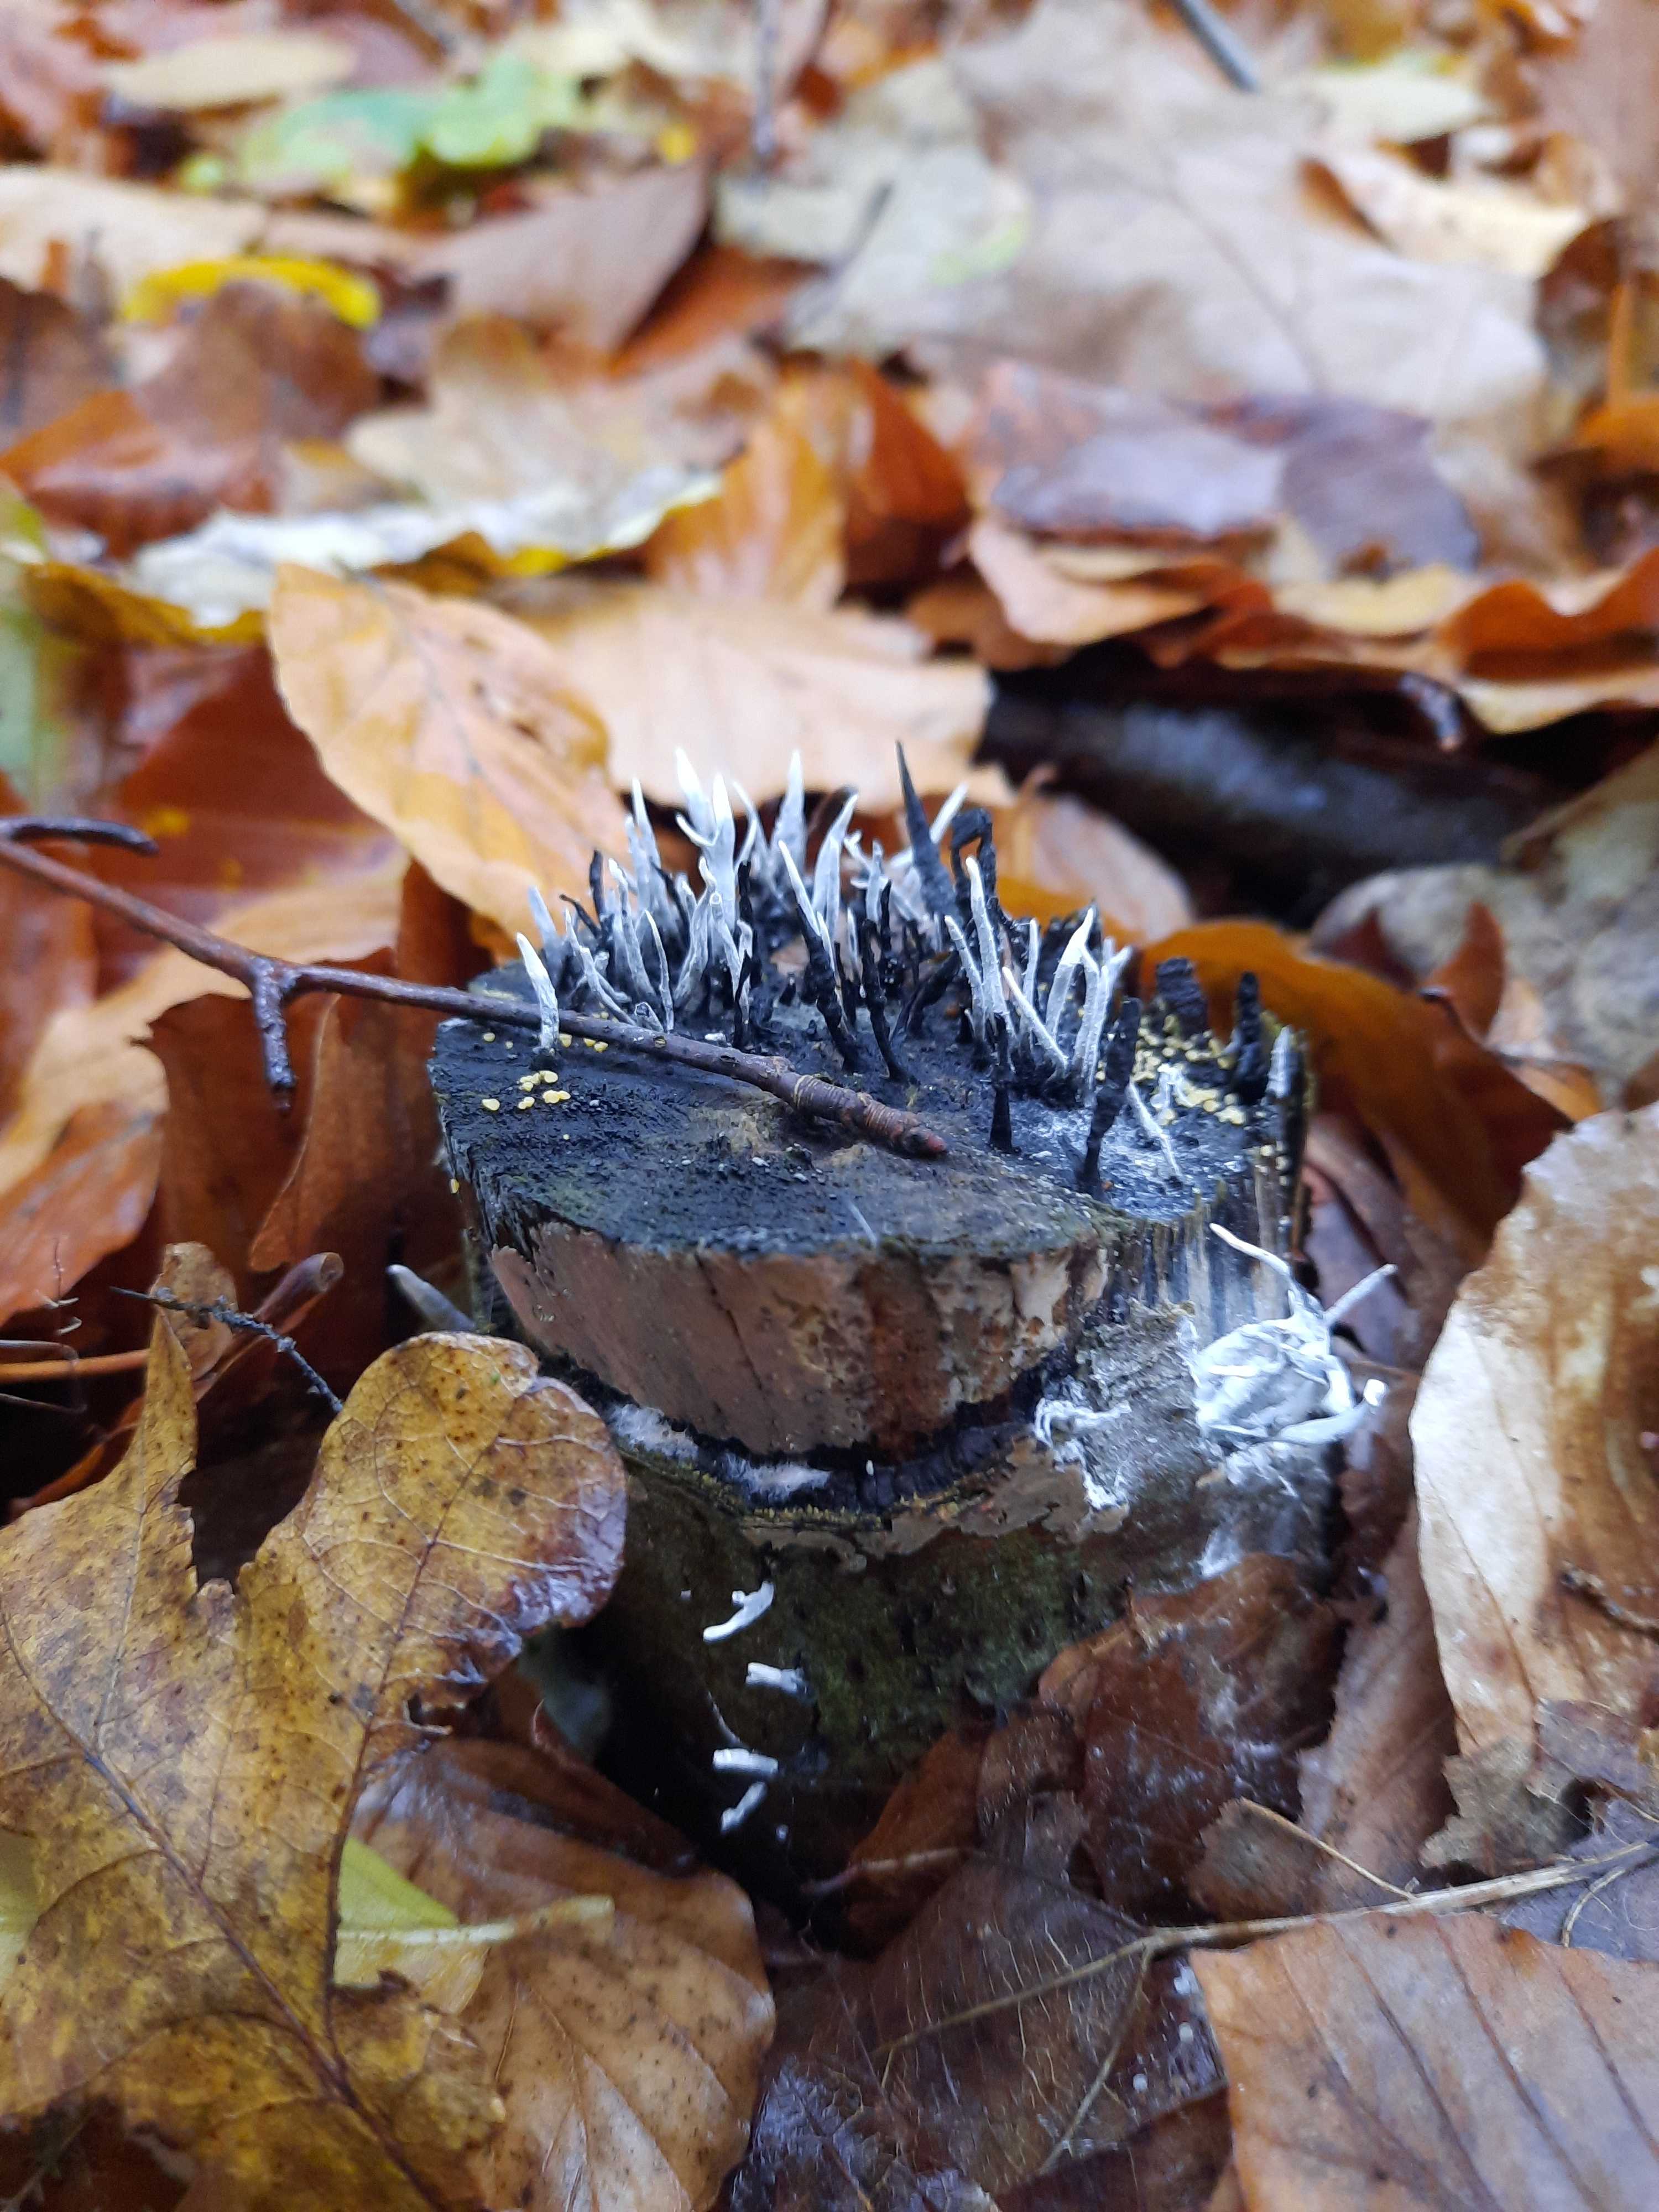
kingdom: Fungi
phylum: Ascomycota
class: Sordariomycetes
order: Xylariales
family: Xylariaceae
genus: Xylaria
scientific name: Xylaria hypoxylon
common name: grenet stødsvamp
